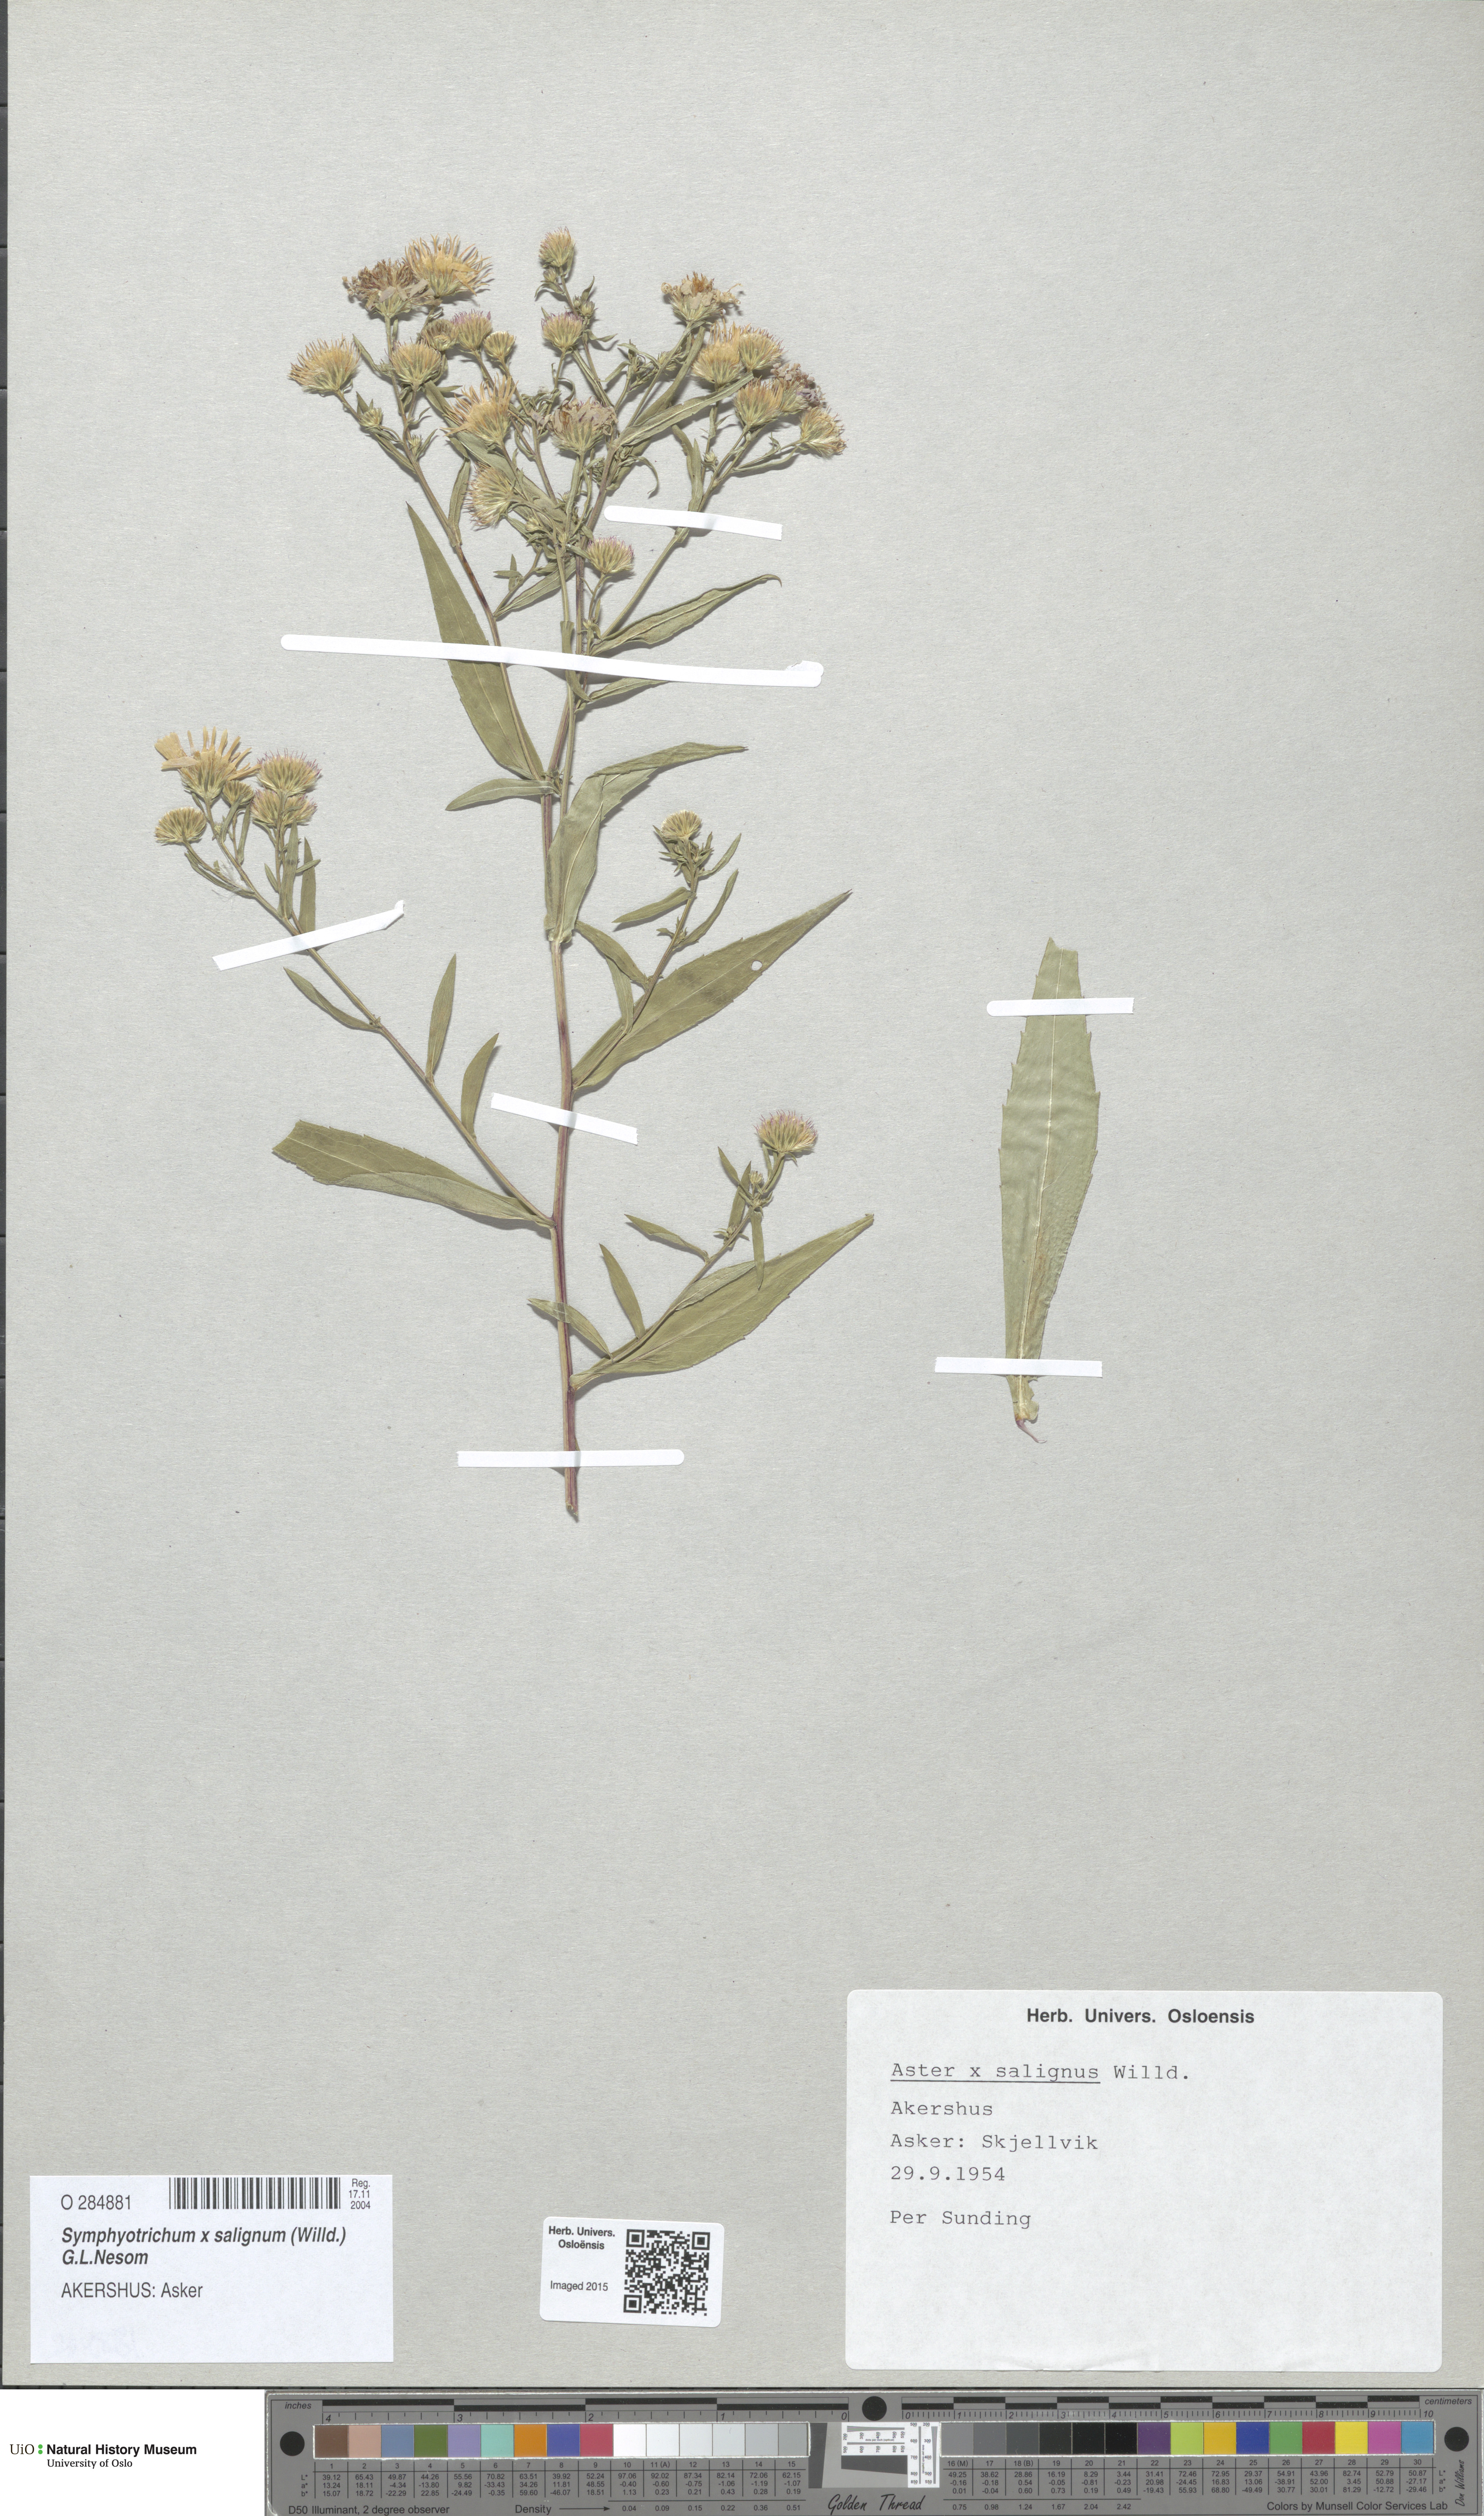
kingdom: Plantae
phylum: Tracheophyta
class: Magnoliopsida
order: Asterales
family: Asteraceae
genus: Symphyotrichum
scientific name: Symphyotrichum salignum
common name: Common michaelmas daisy
